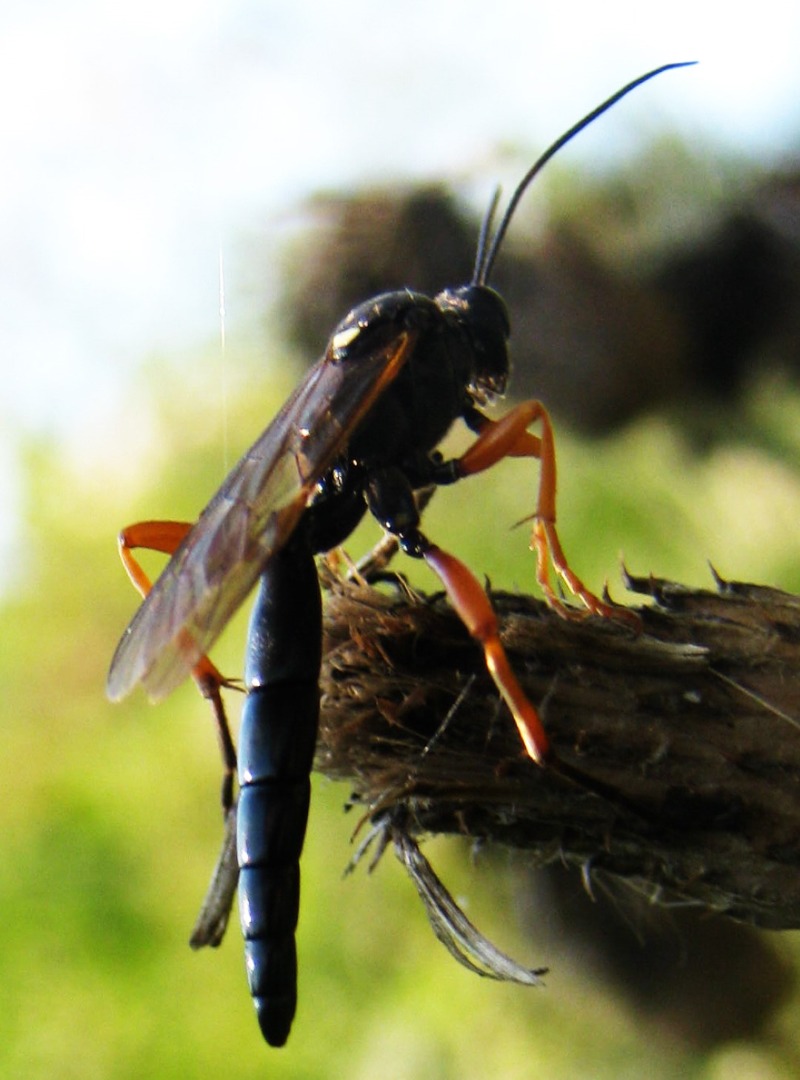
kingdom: Animalia
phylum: Arthropoda
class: Insecta
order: Hymenoptera
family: Ichneumonidae
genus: Limerodops
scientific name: Limerodops elongatus
